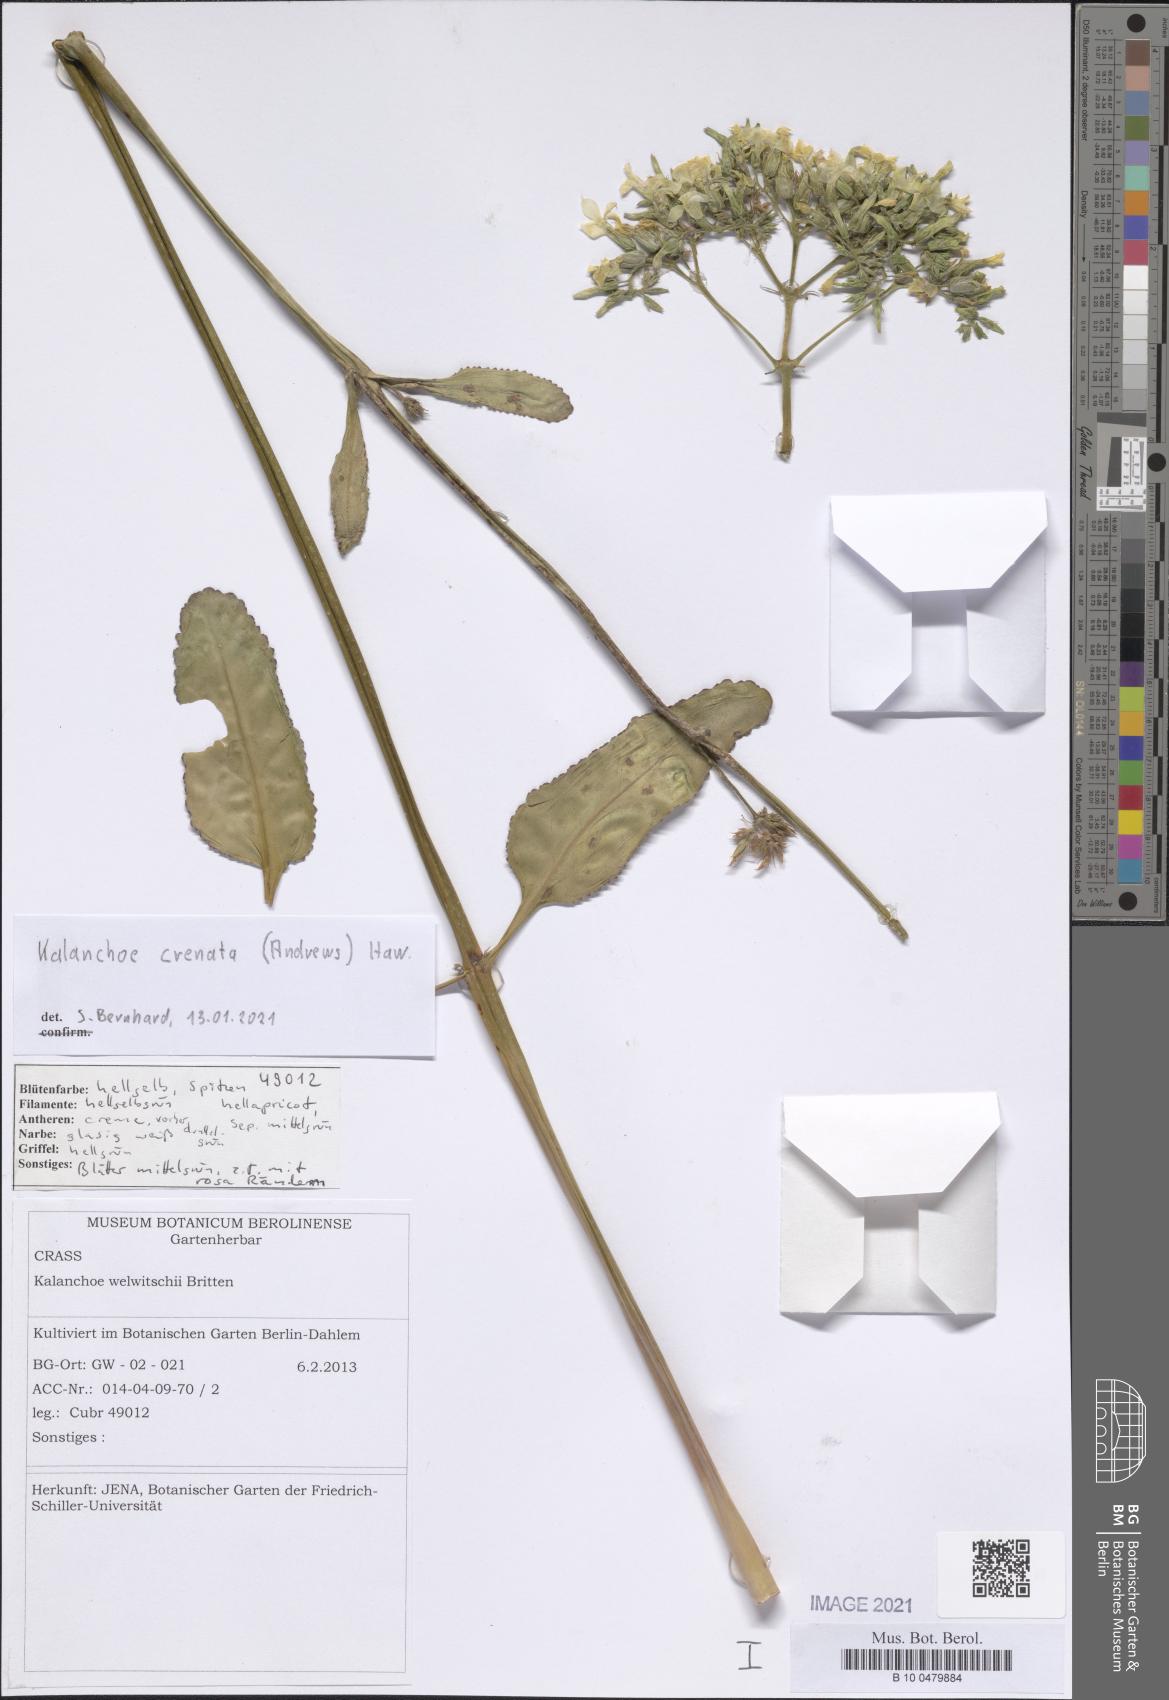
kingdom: Plantae
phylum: Tracheophyta
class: Magnoliopsida
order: Saxifragales
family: Crassulaceae
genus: Kalanchoe
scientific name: Kalanchoe crenata
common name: Neverdie
